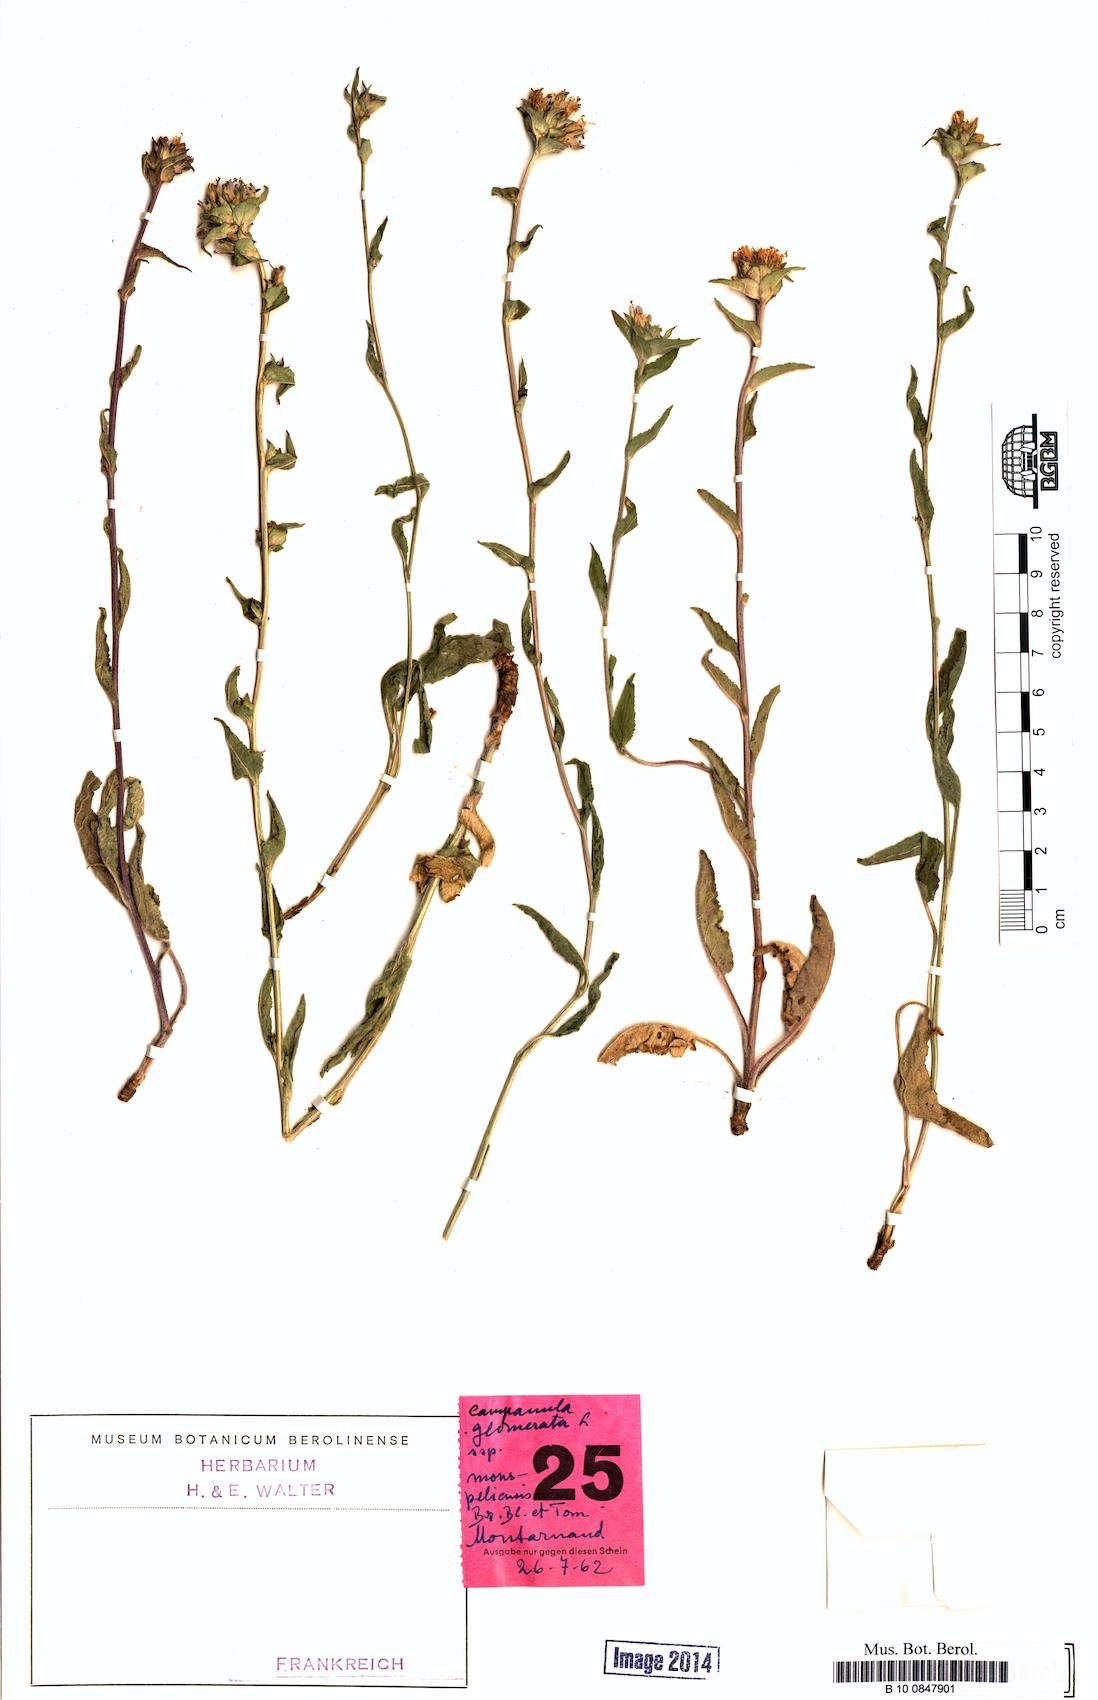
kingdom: Plantae
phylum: Tracheophyta
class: Magnoliopsida
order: Asterales
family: Campanulaceae
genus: Campanula
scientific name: Campanula glomerata
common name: Clustered bellflower
